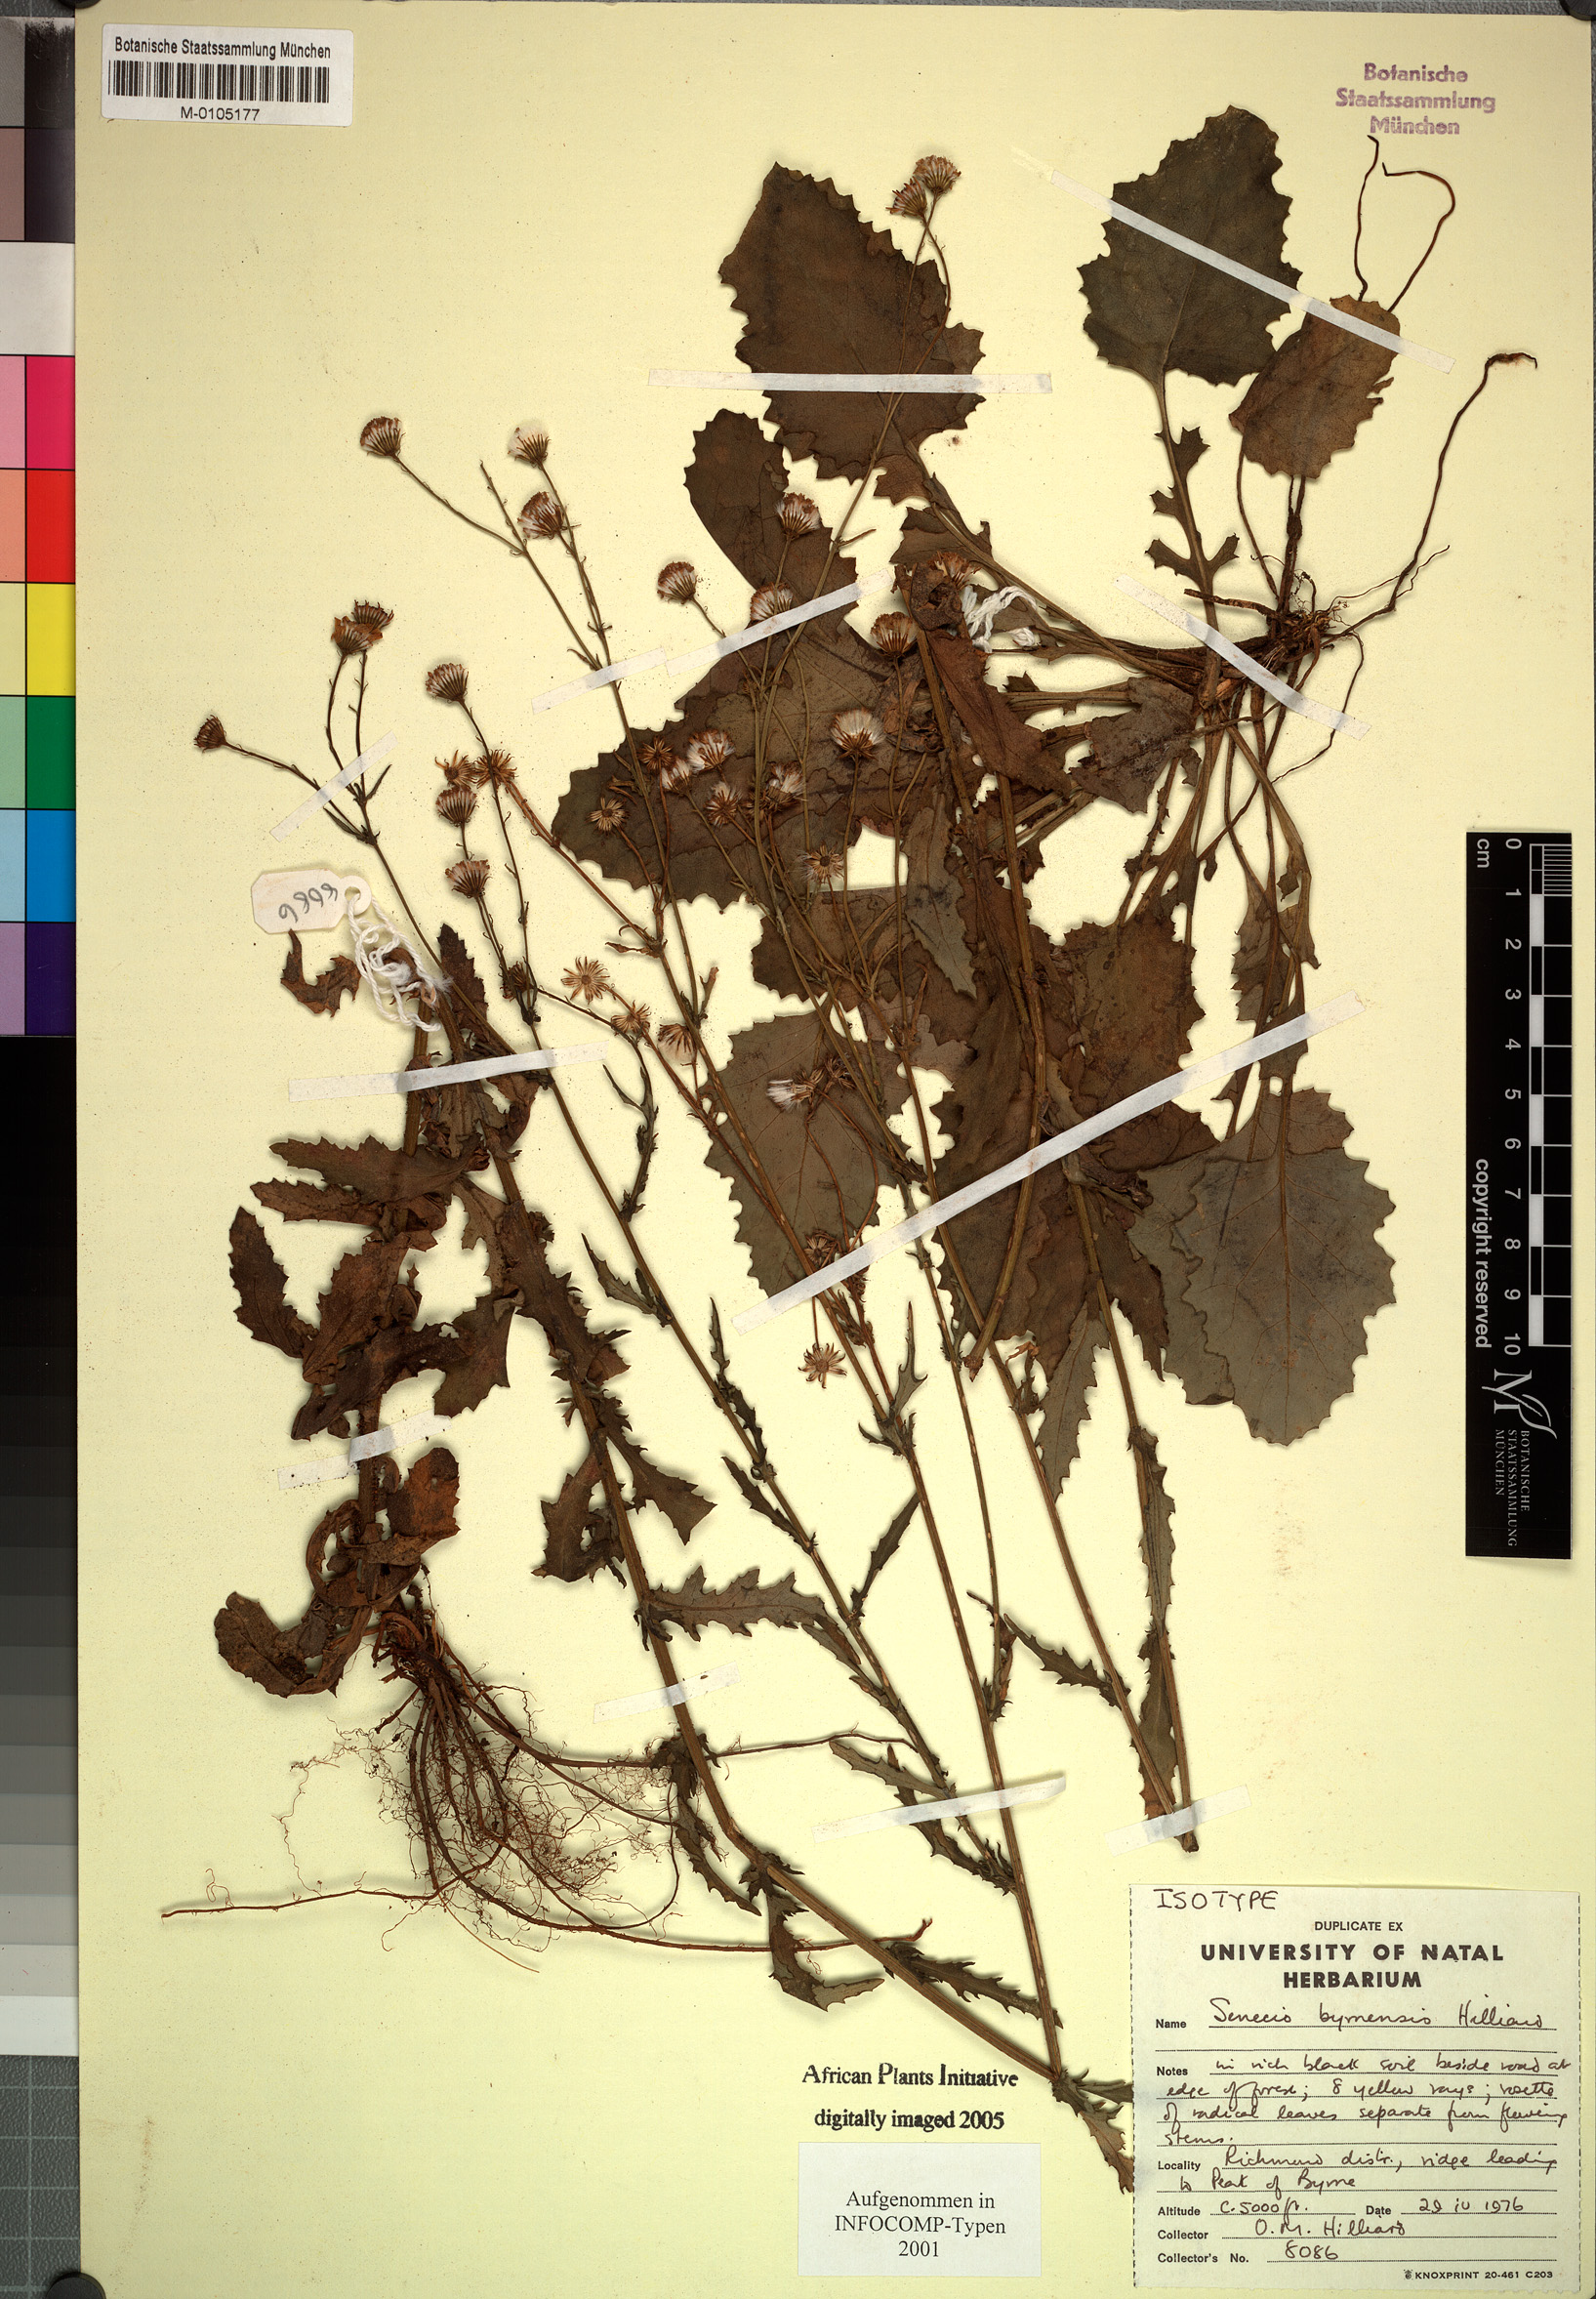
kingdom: Plantae
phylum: Tracheophyta
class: Magnoliopsida
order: Asterales
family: Asteraceae
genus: Senecio
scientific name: Senecio byrnensis
